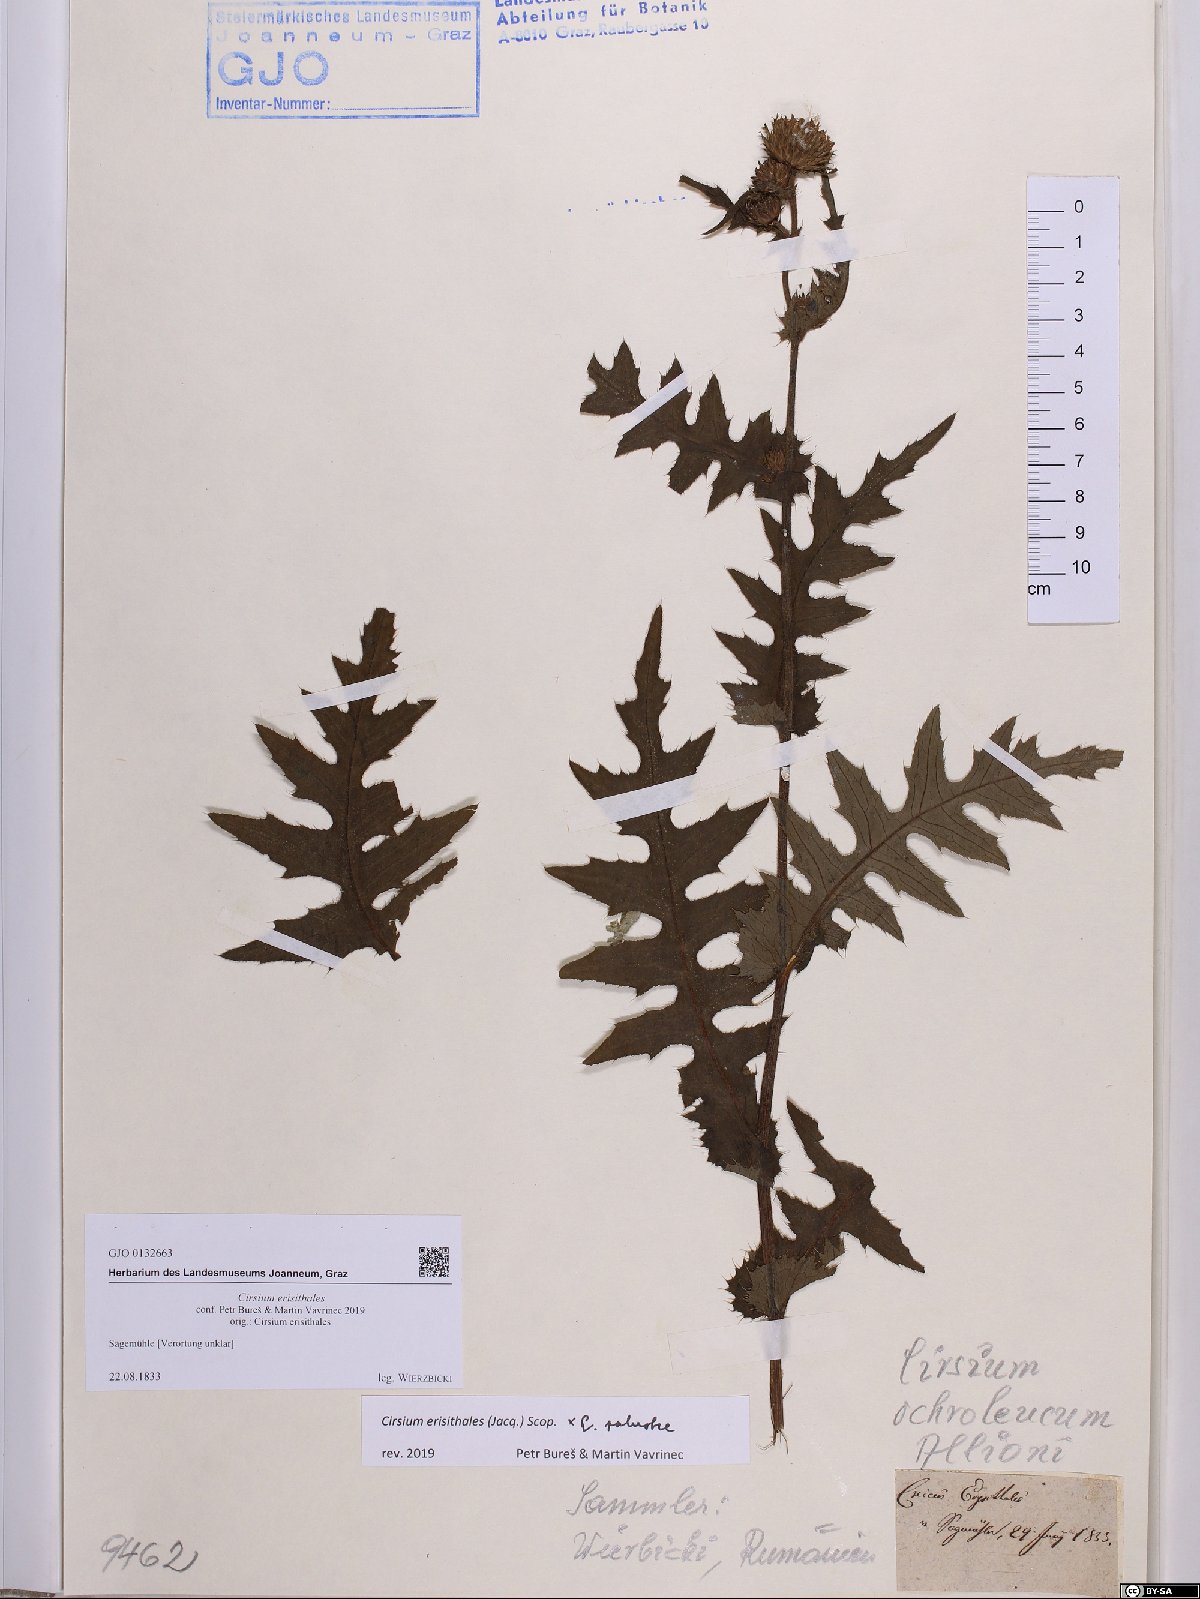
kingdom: Plantae
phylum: Tracheophyta
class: Magnoliopsida
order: Asterales
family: Asteraceae
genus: Cirsium
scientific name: Cirsium erisithales
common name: Yellow thistle
